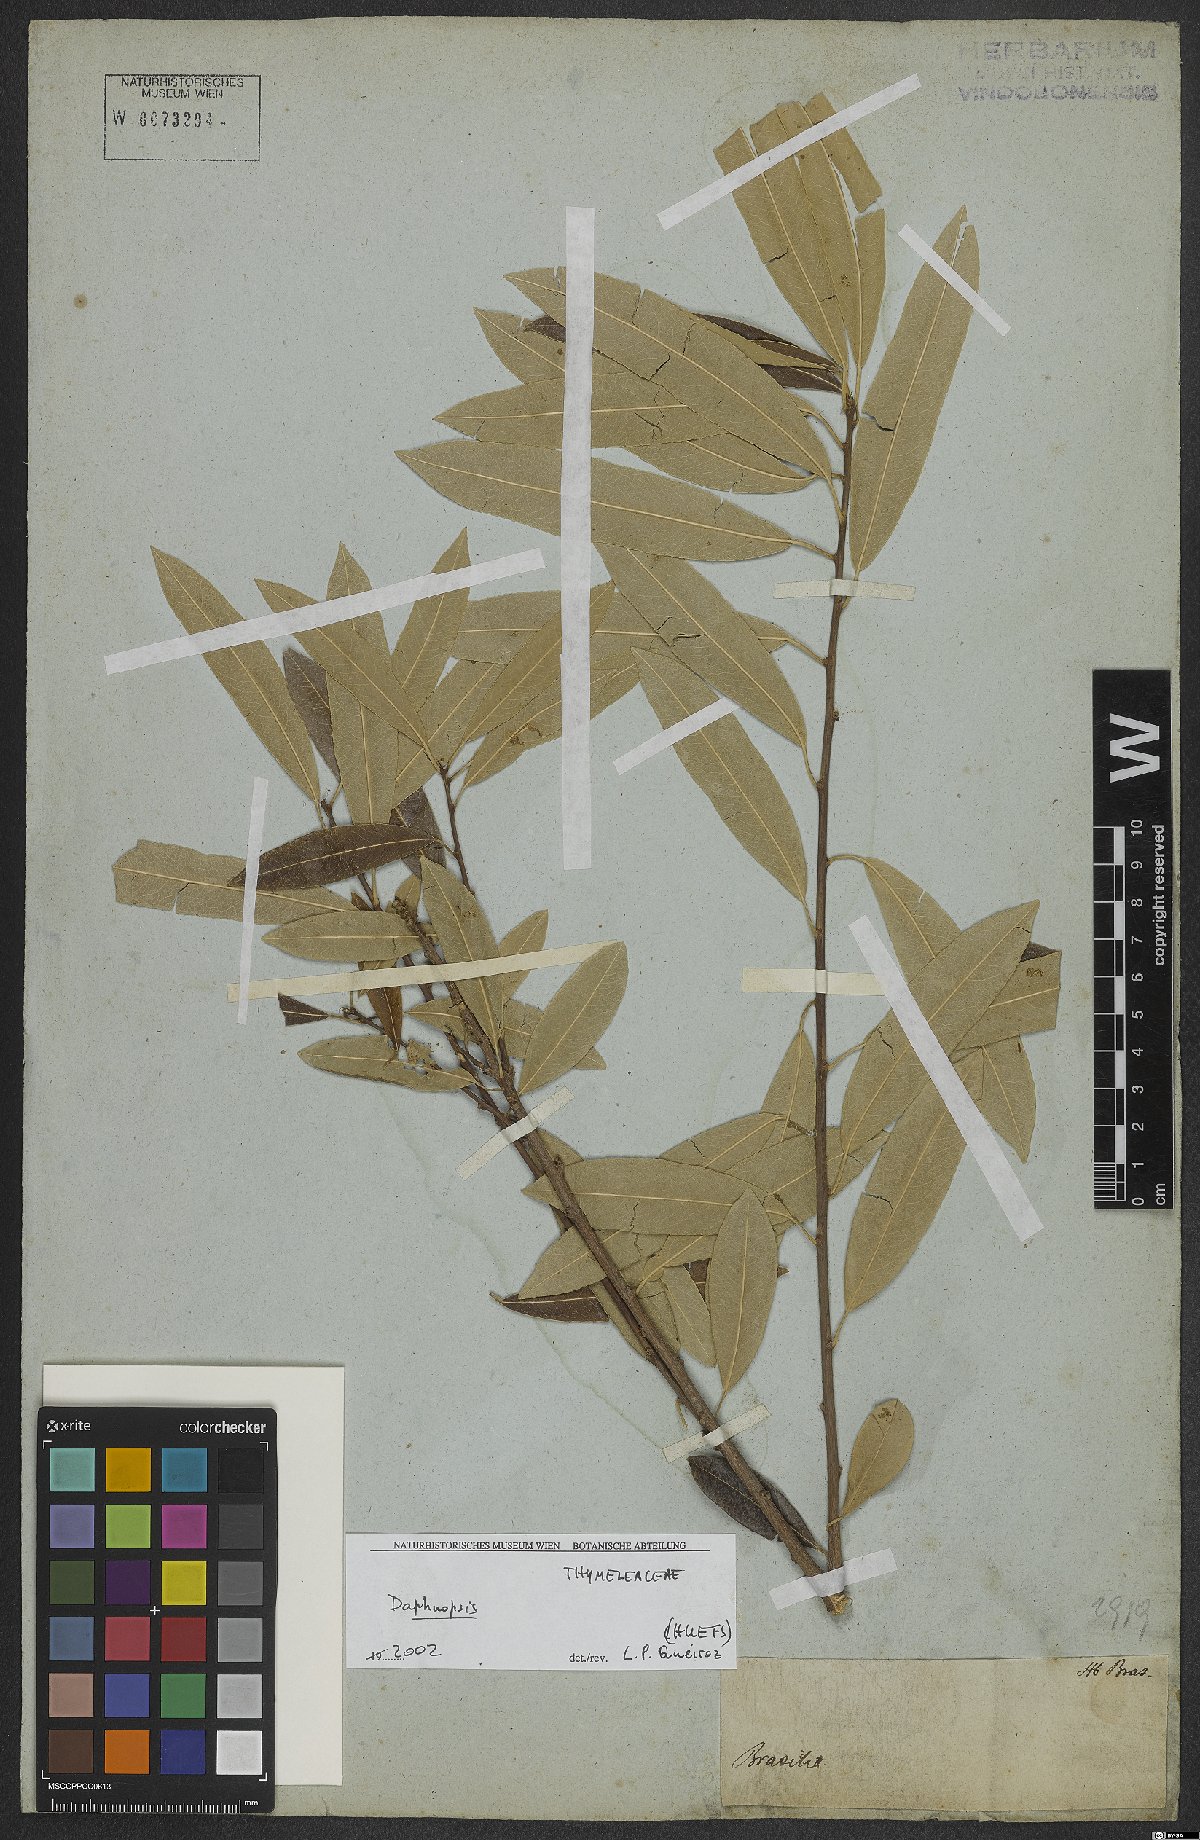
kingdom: Plantae
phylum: Tracheophyta
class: Magnoliopsida
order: Malvales
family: Thymelaeaceae
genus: Daphnopsis
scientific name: Daphnopsis
